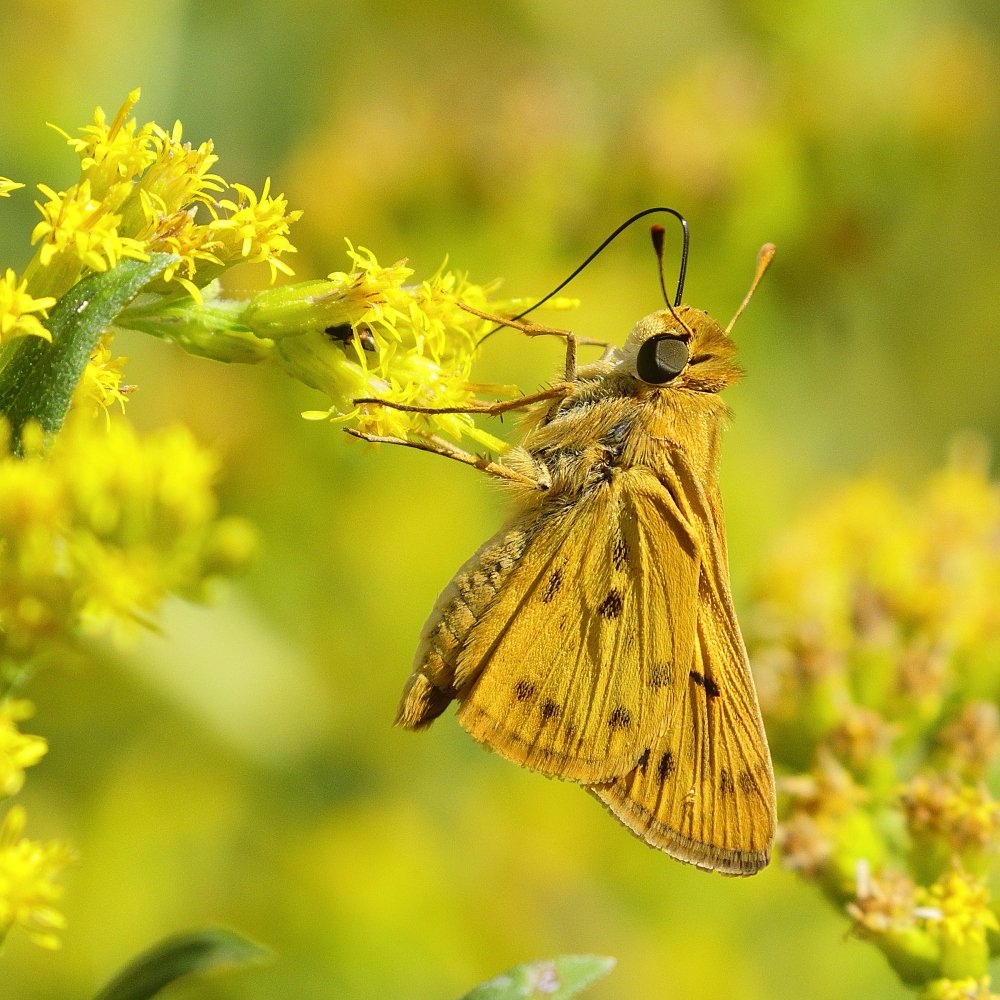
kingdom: Animalia
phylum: Arthropoda
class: Insecta
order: Lepidoptera
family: Hesperiidae
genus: Hylephila
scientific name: Hylephila phyleus
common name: Fiery Skipper
